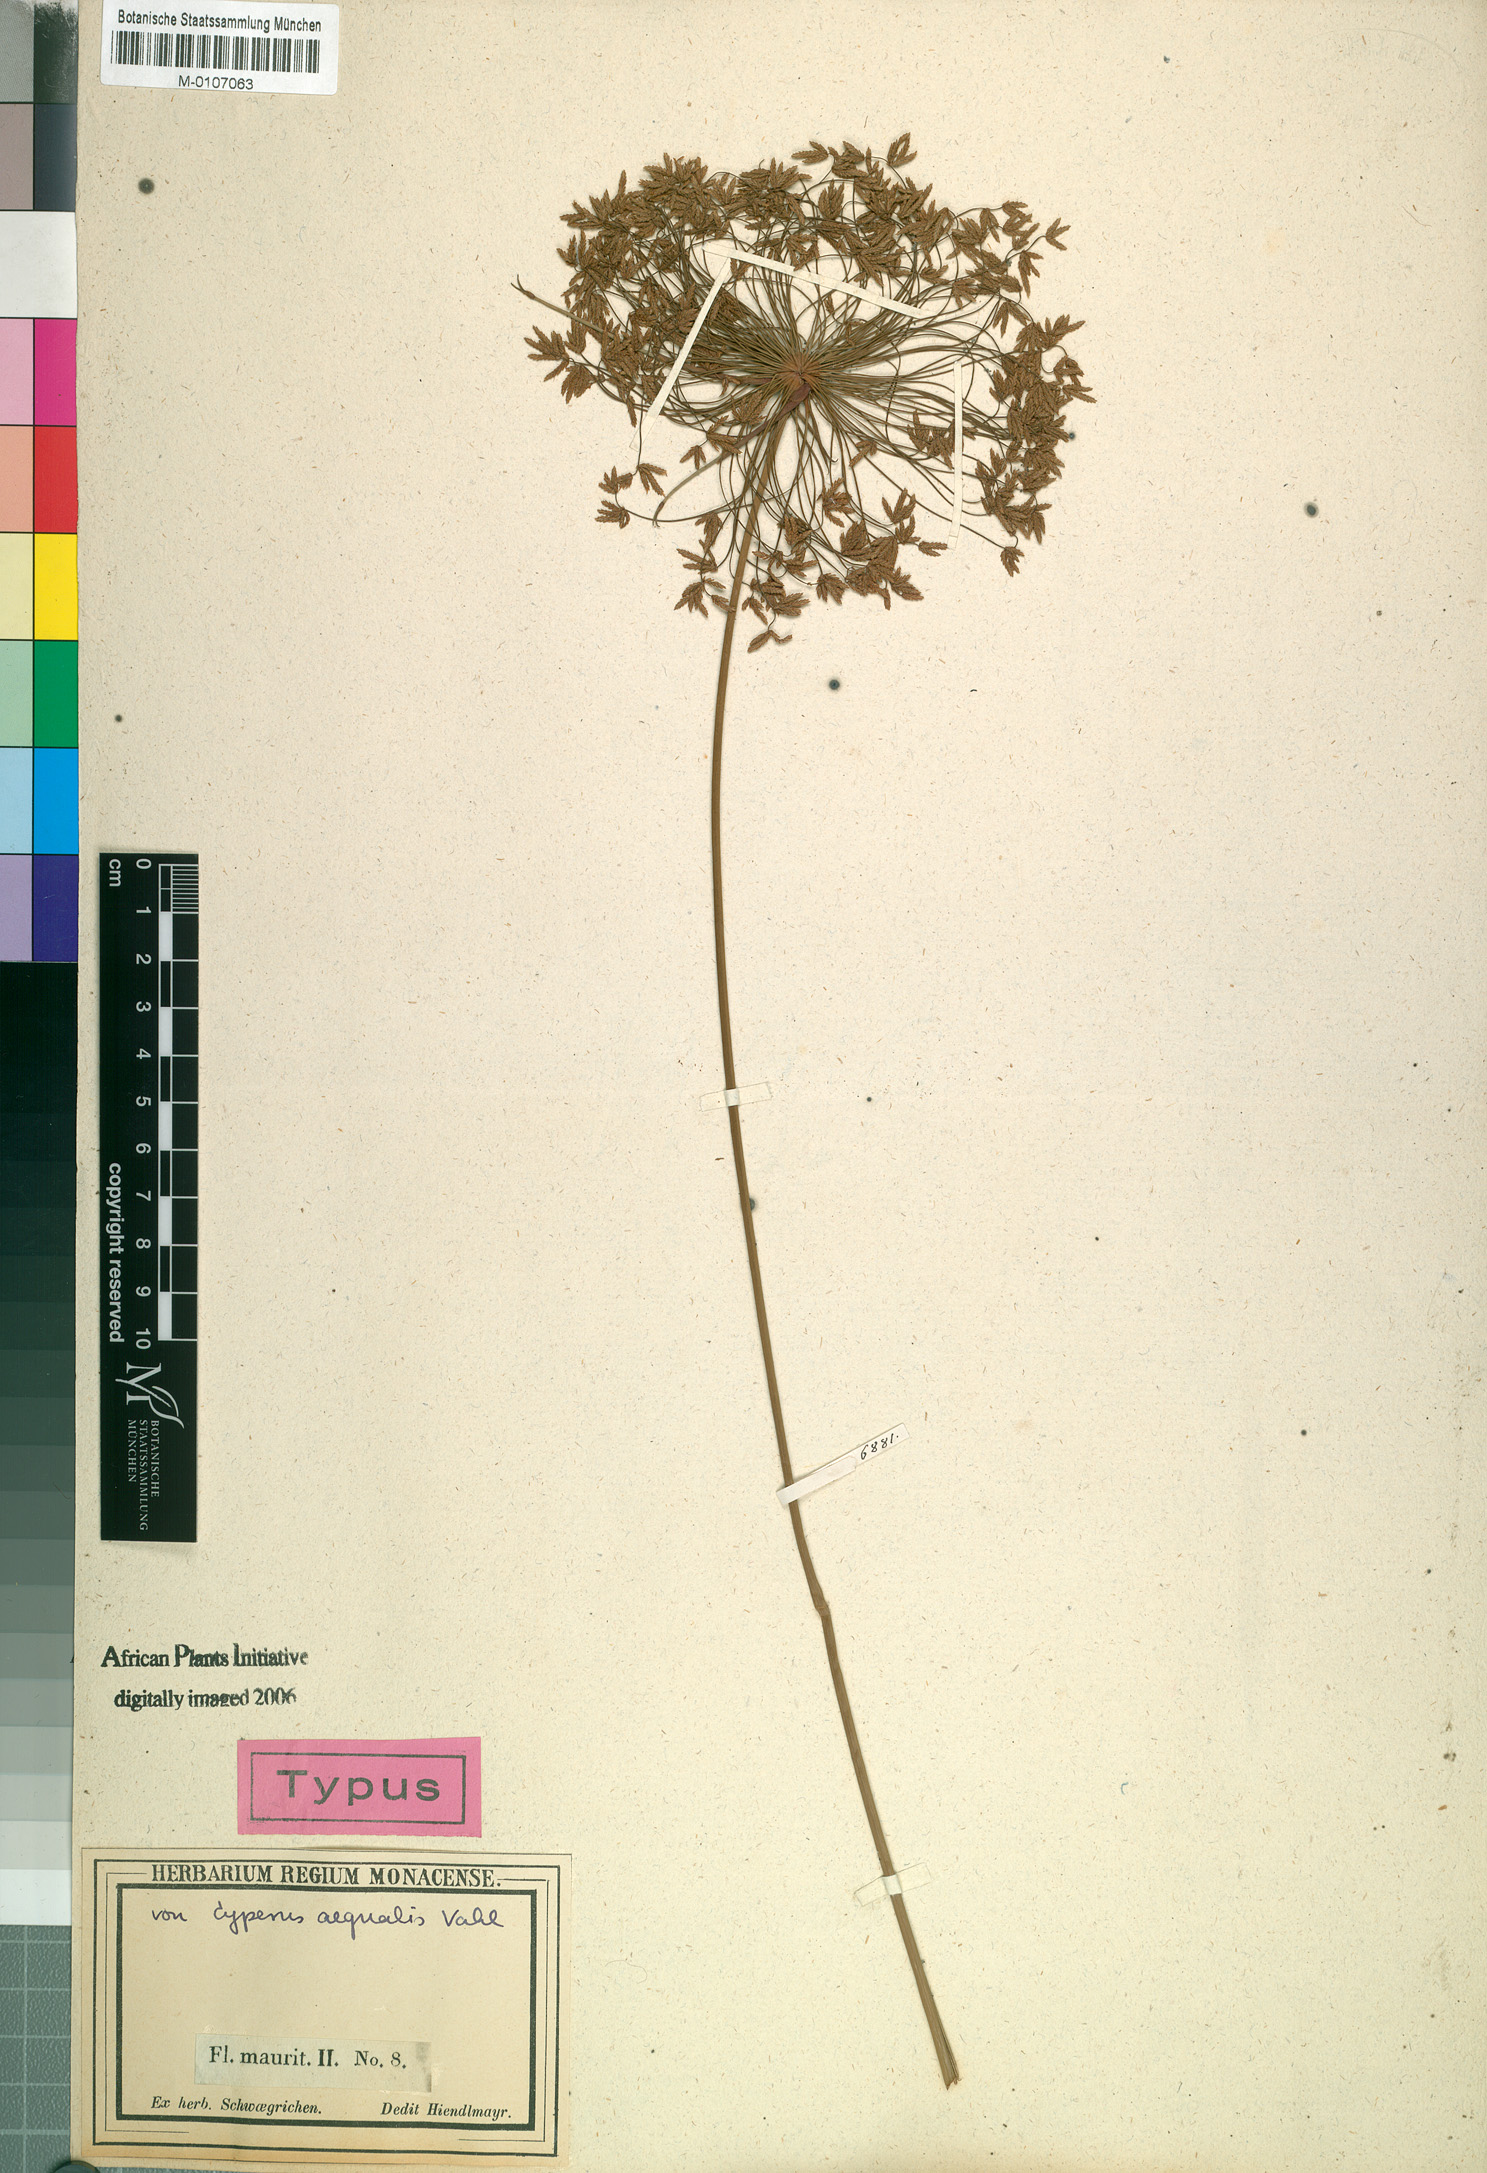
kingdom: Plantae
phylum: Tracheophyta
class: Liliopsida
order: Poales
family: Cyperaceae
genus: Cyperus
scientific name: Cyperus prolifer
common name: Miniature flatsedge
